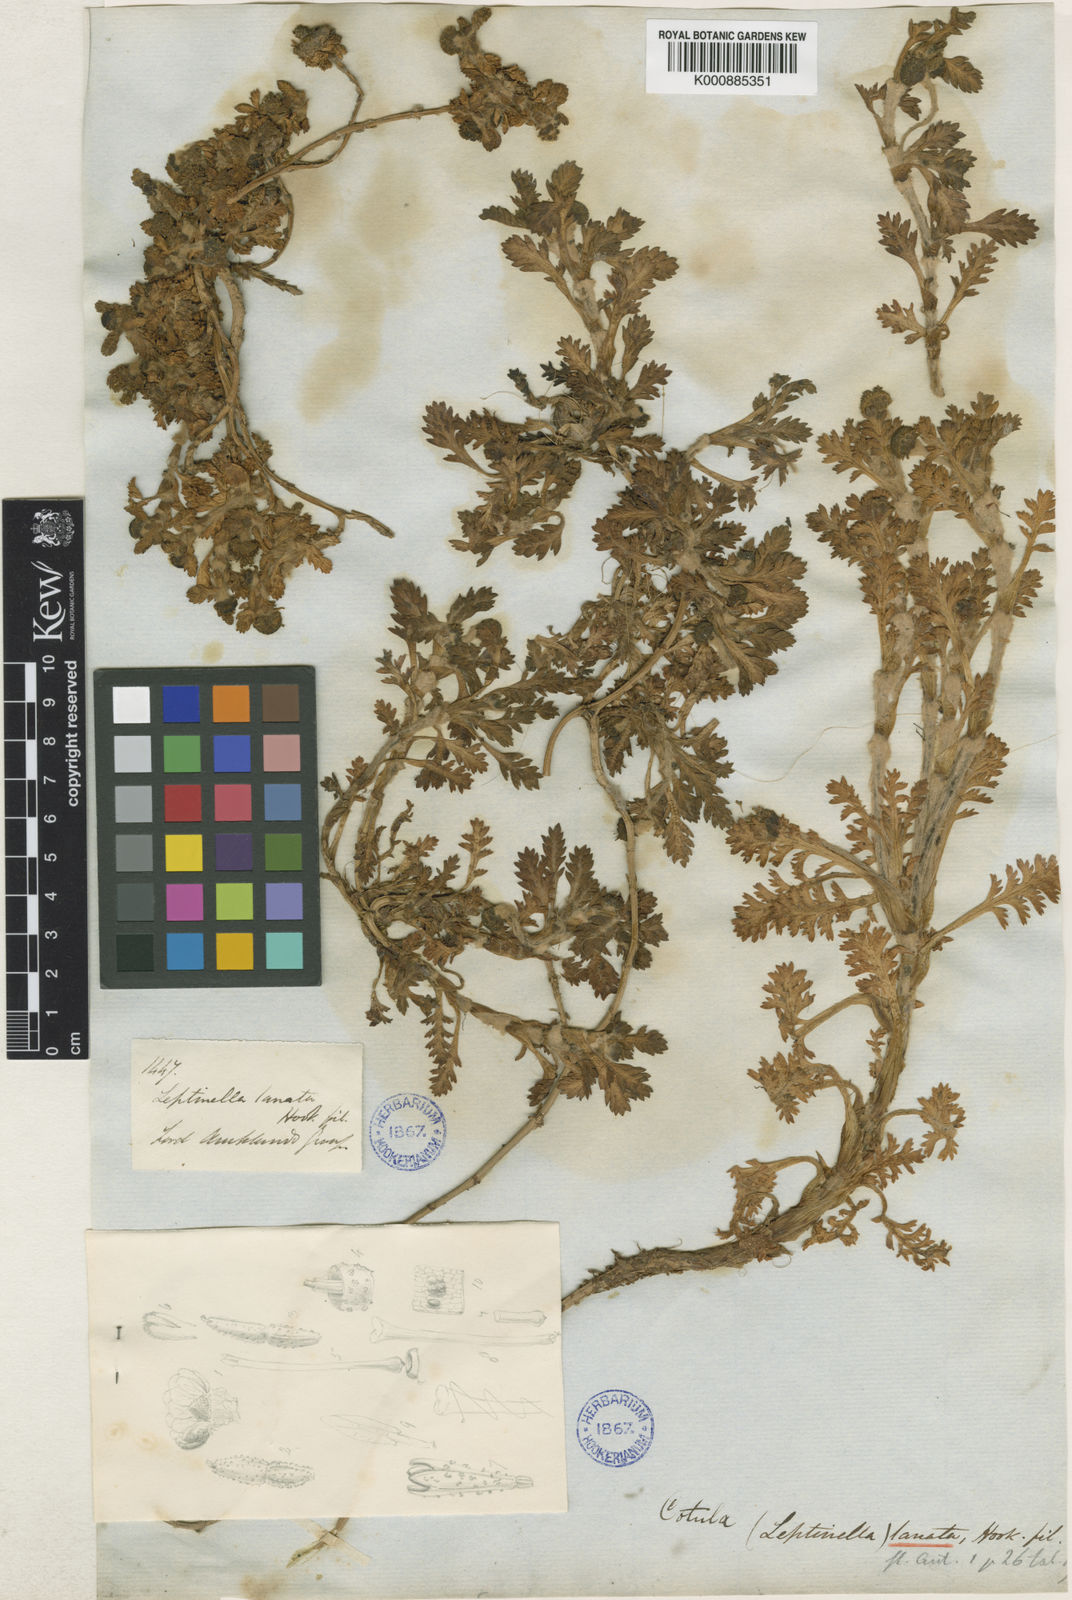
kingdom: Plantae
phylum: Tracheophyta
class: Magnoliopsida
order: Asterales
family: Asteraceae
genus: Leptinella
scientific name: Leptinella lanata
